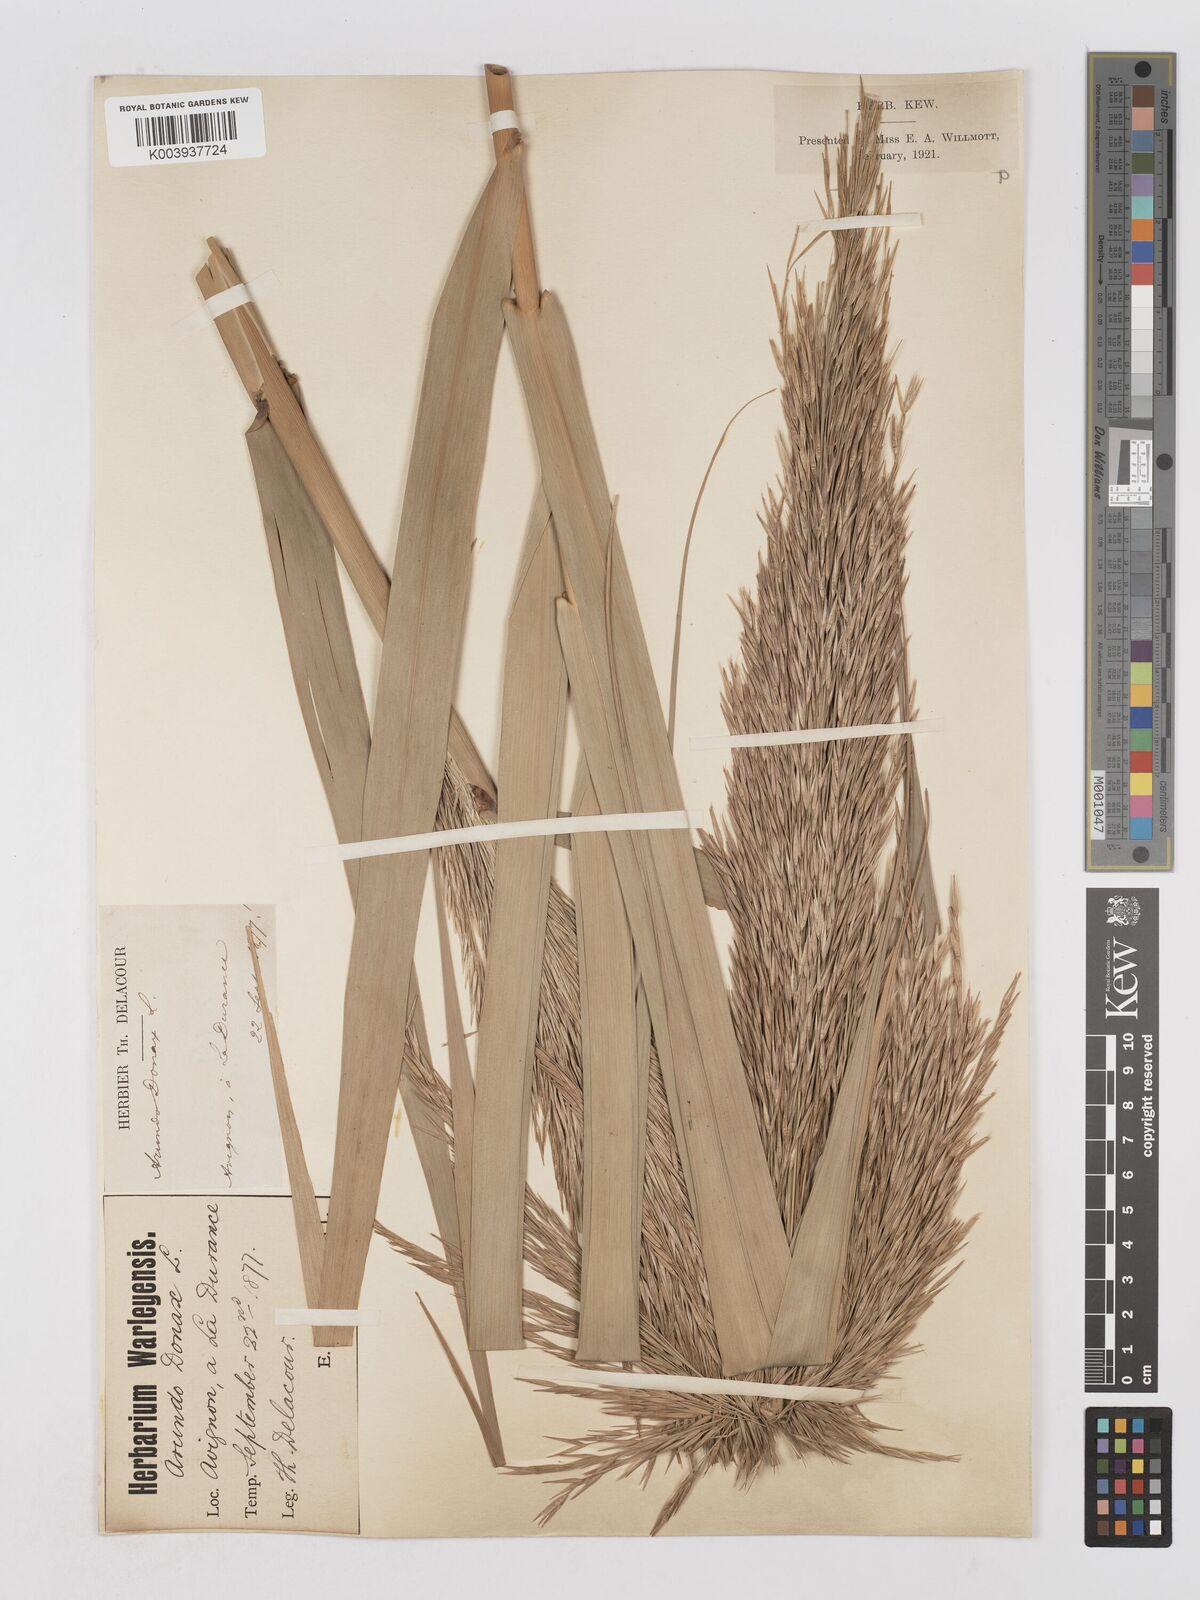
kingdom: Plantae
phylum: Tracheophyta
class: Liliopsida
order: Poales
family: Poaceae
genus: Arundo
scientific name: Arundo donax
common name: Giant reed
